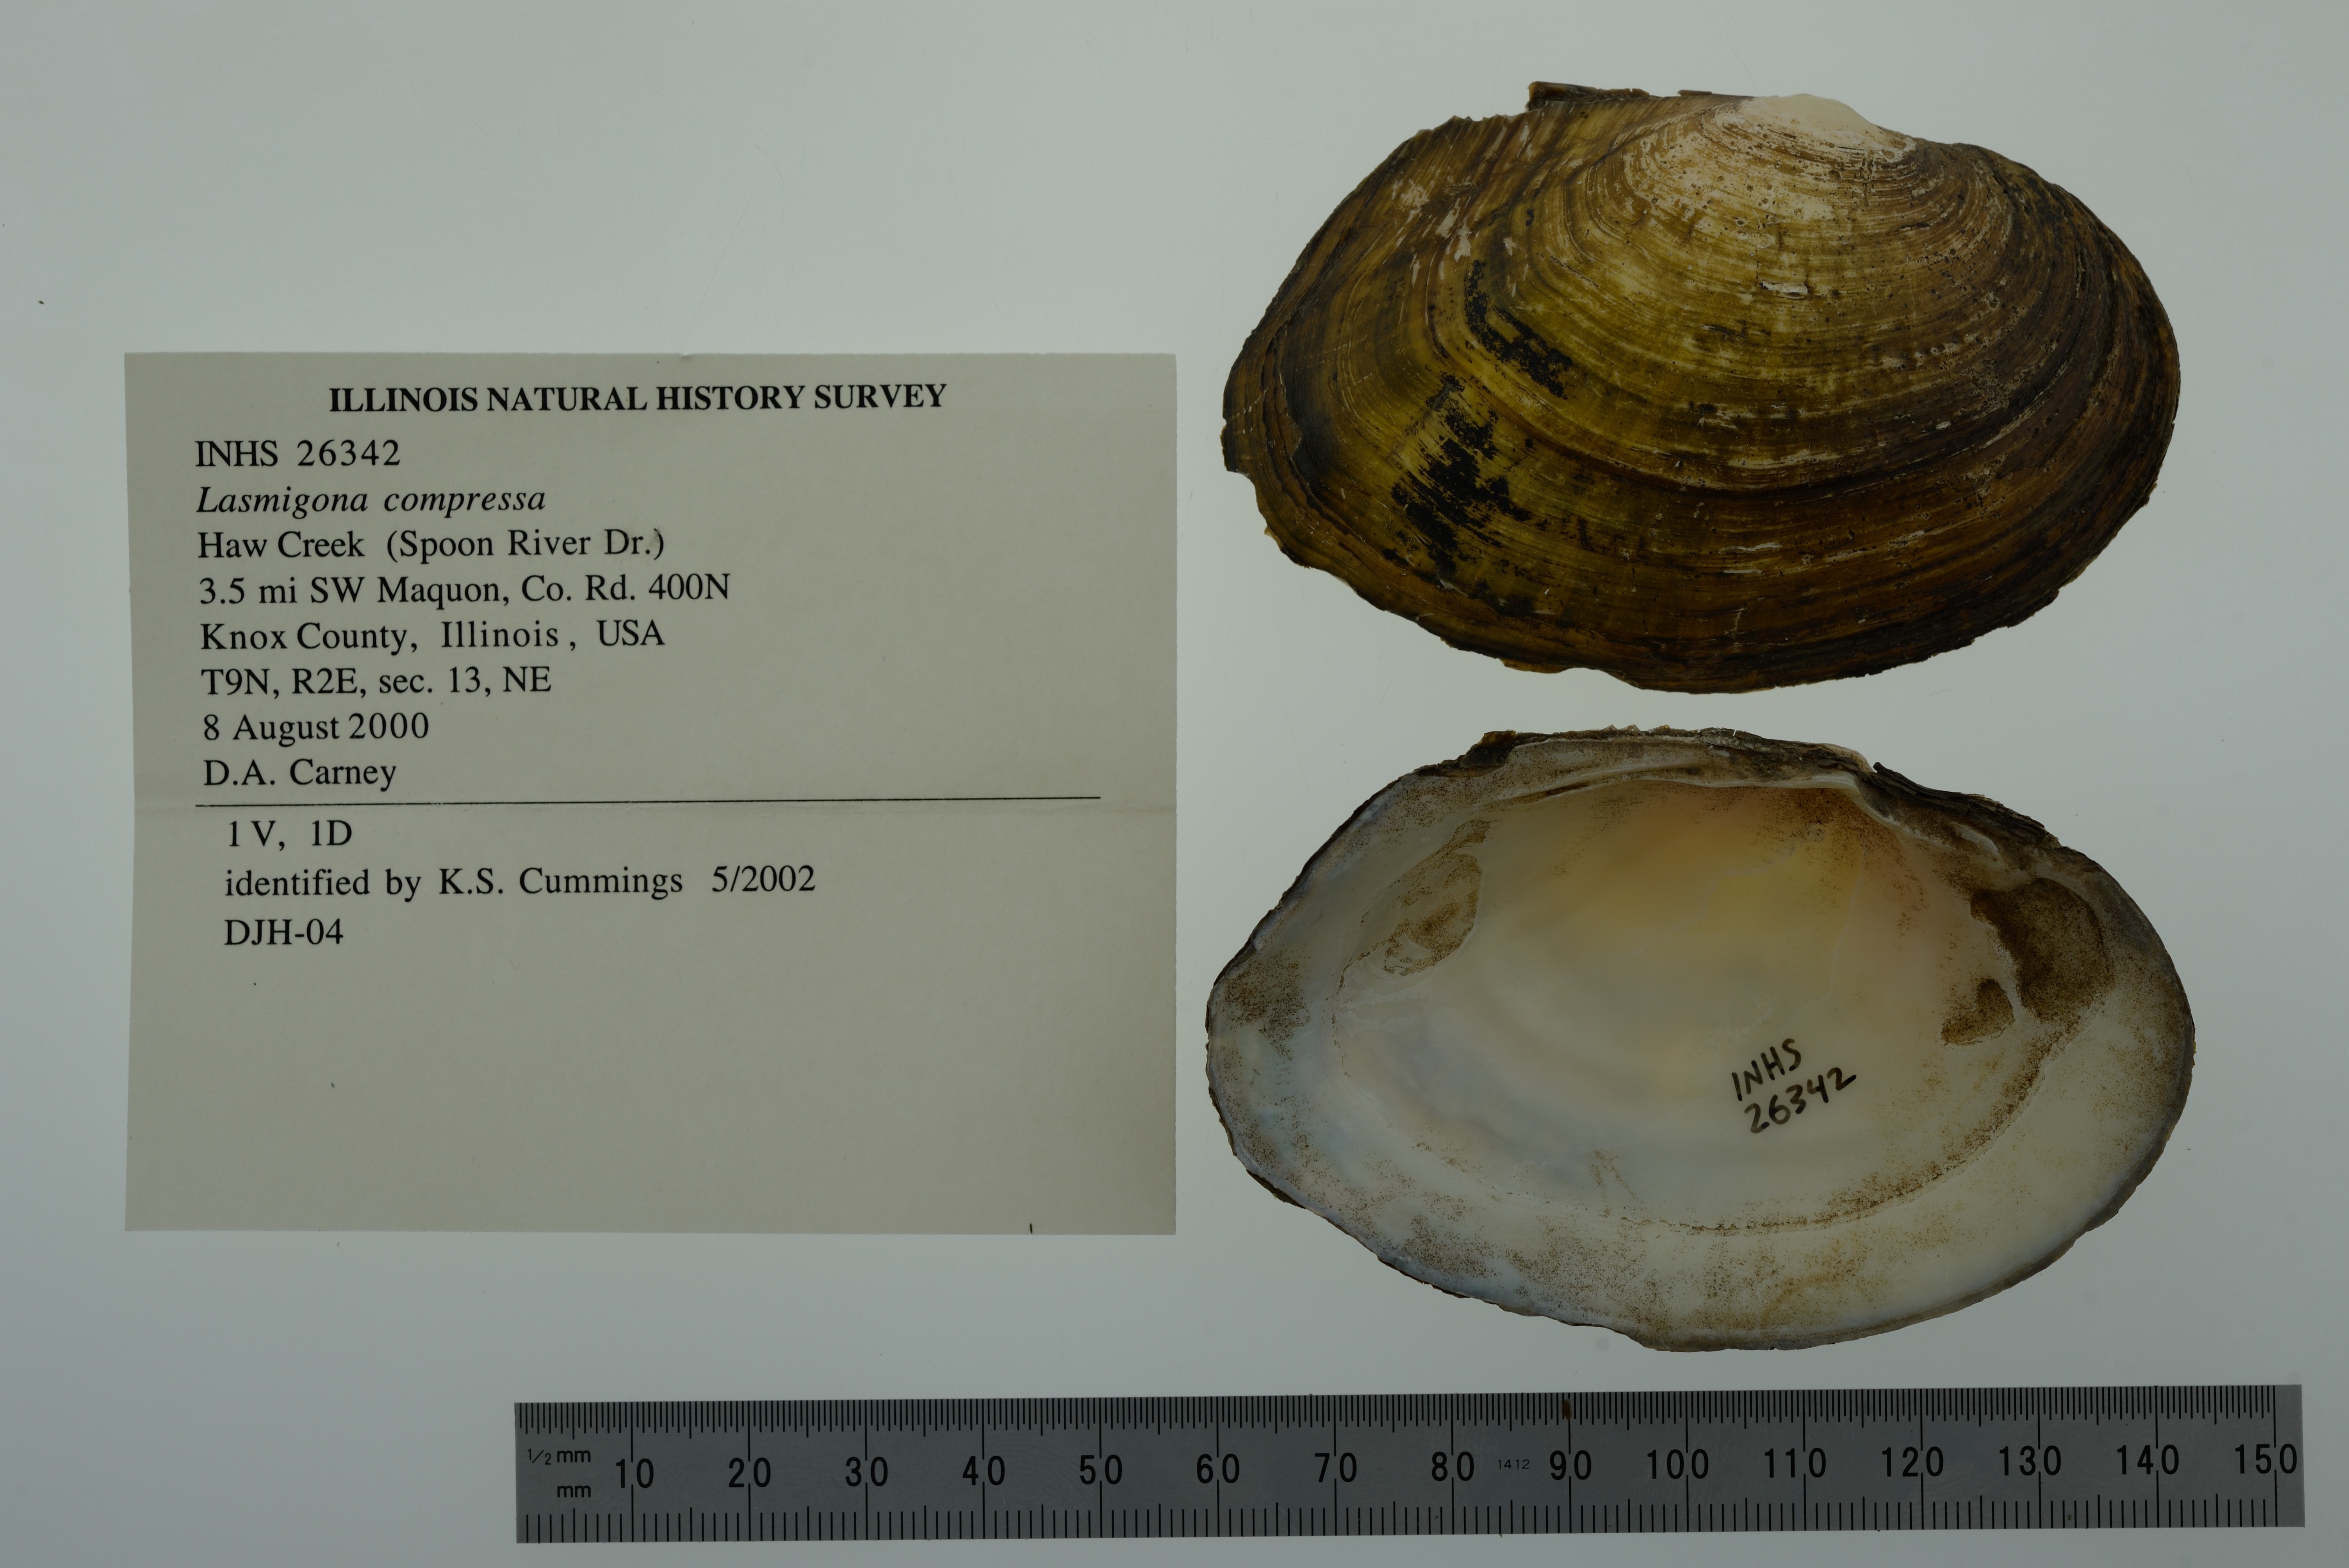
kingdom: Animalia
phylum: Mollusca
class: Bivalvia
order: Unionida
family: Unionidae
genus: Lasmigona
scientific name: Lasmigona compressa
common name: Creek heelsplitter
